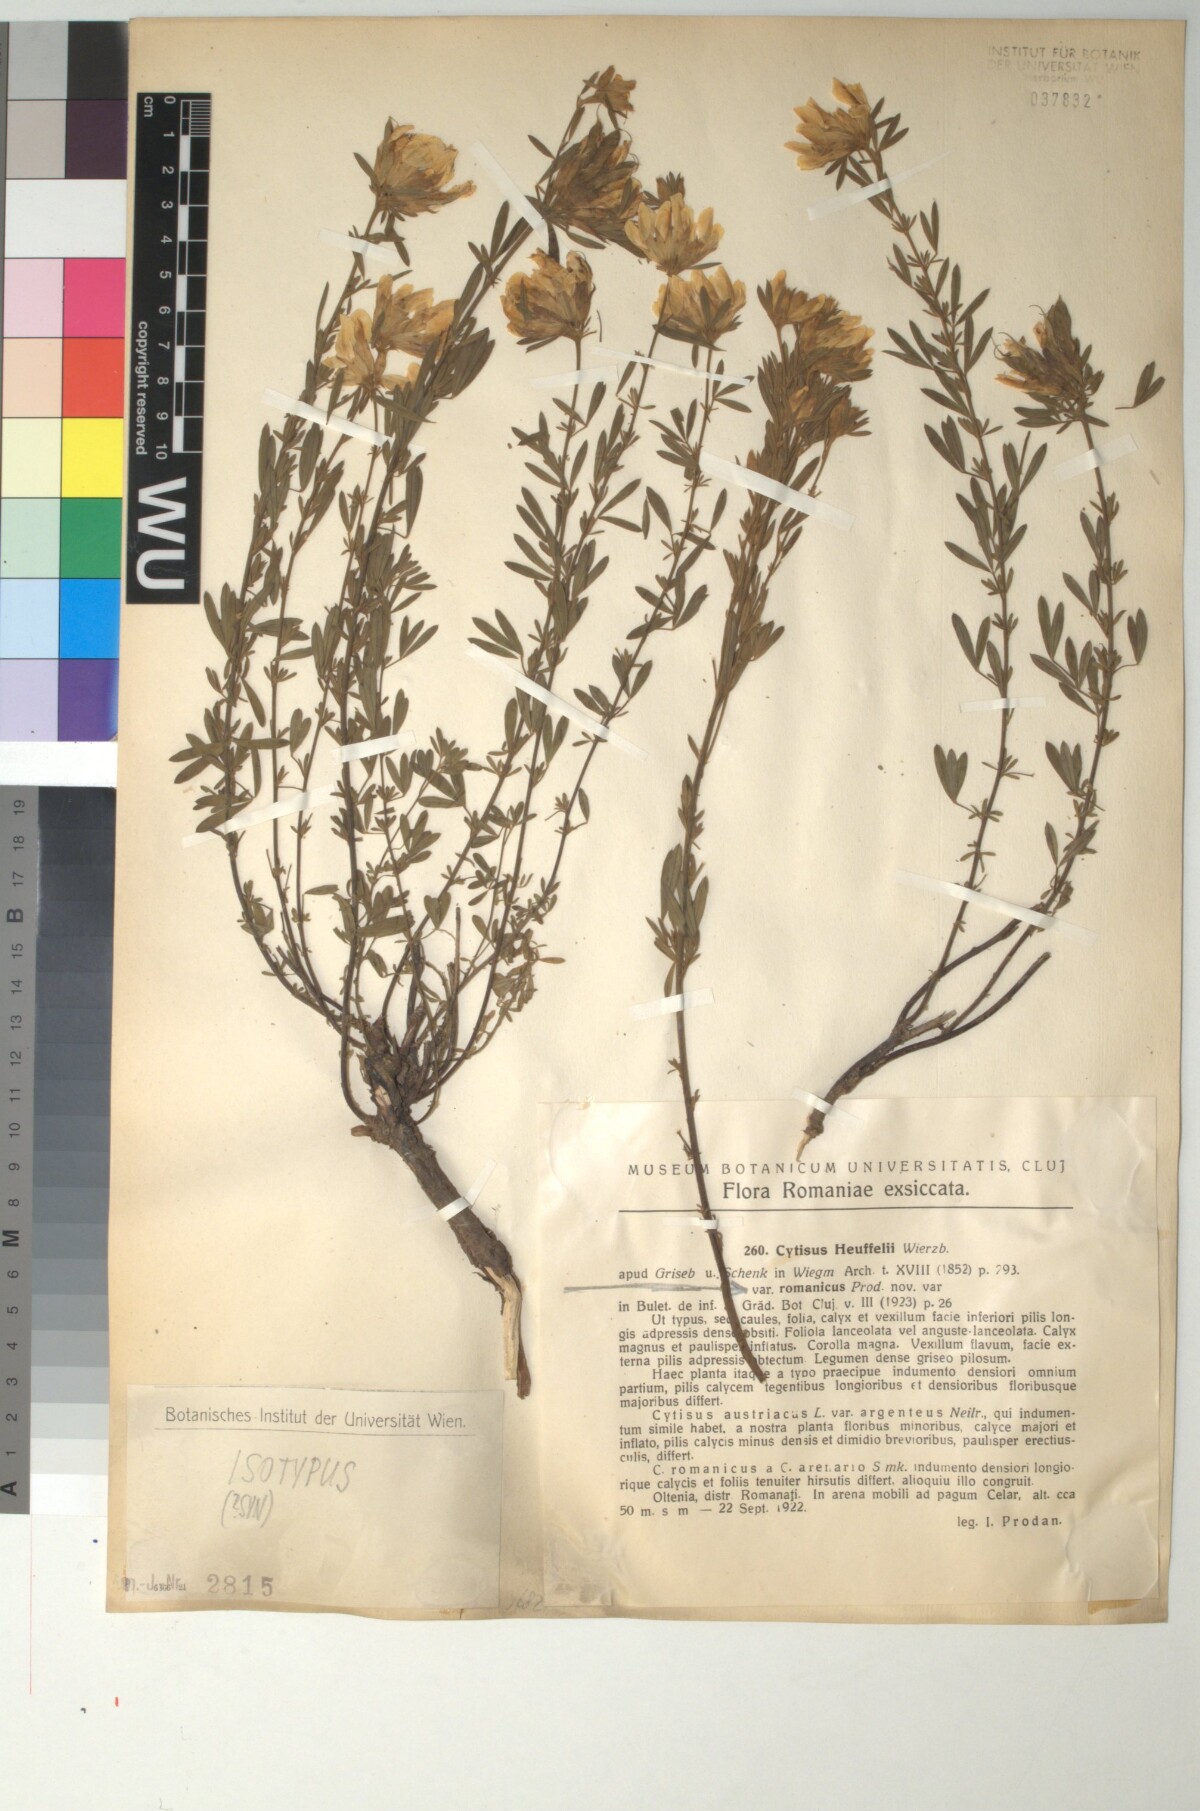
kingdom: Plantae
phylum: Tracheophyta
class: Magnoliopsida
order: Fabales
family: Fabaceae
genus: Chamaecytisus
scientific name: Chamaecytisus heuffelii
